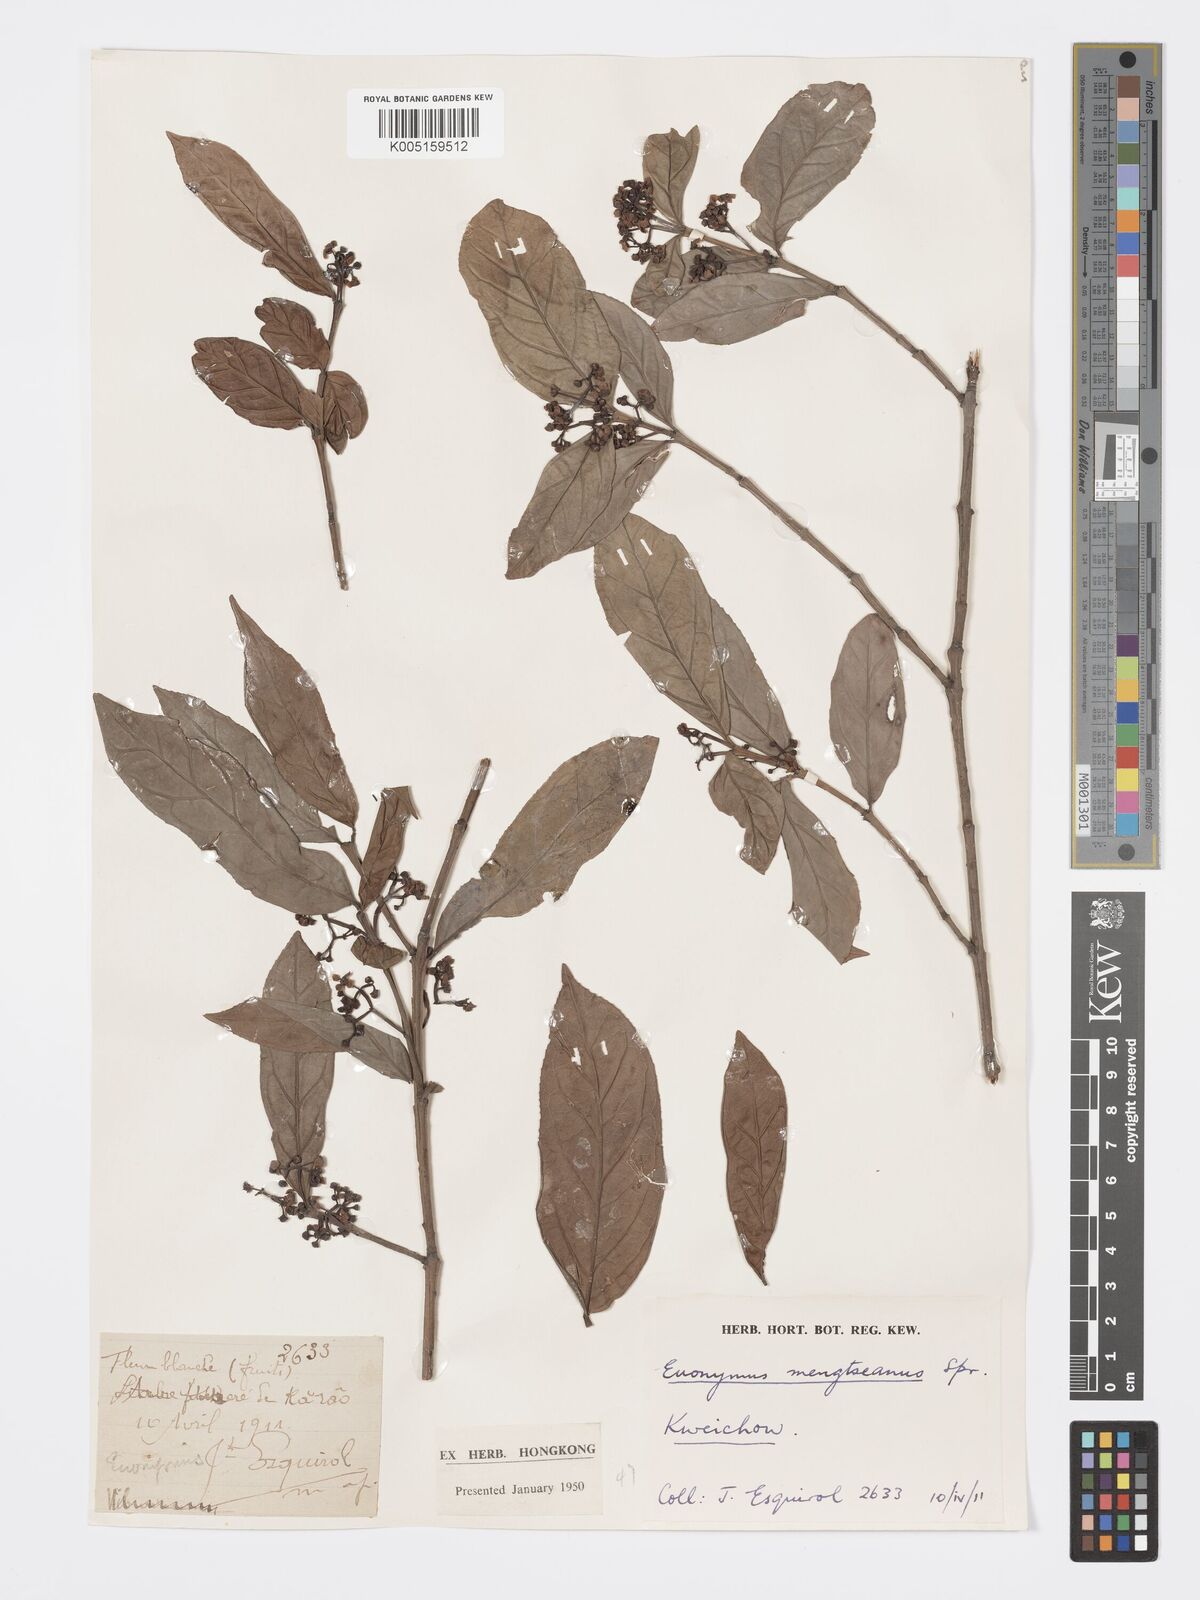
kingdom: Plantae
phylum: Tracheophyta
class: Magnoliopsida
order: Celastrales
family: Celastraceae
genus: Euonymus
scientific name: Euonymus balansae
